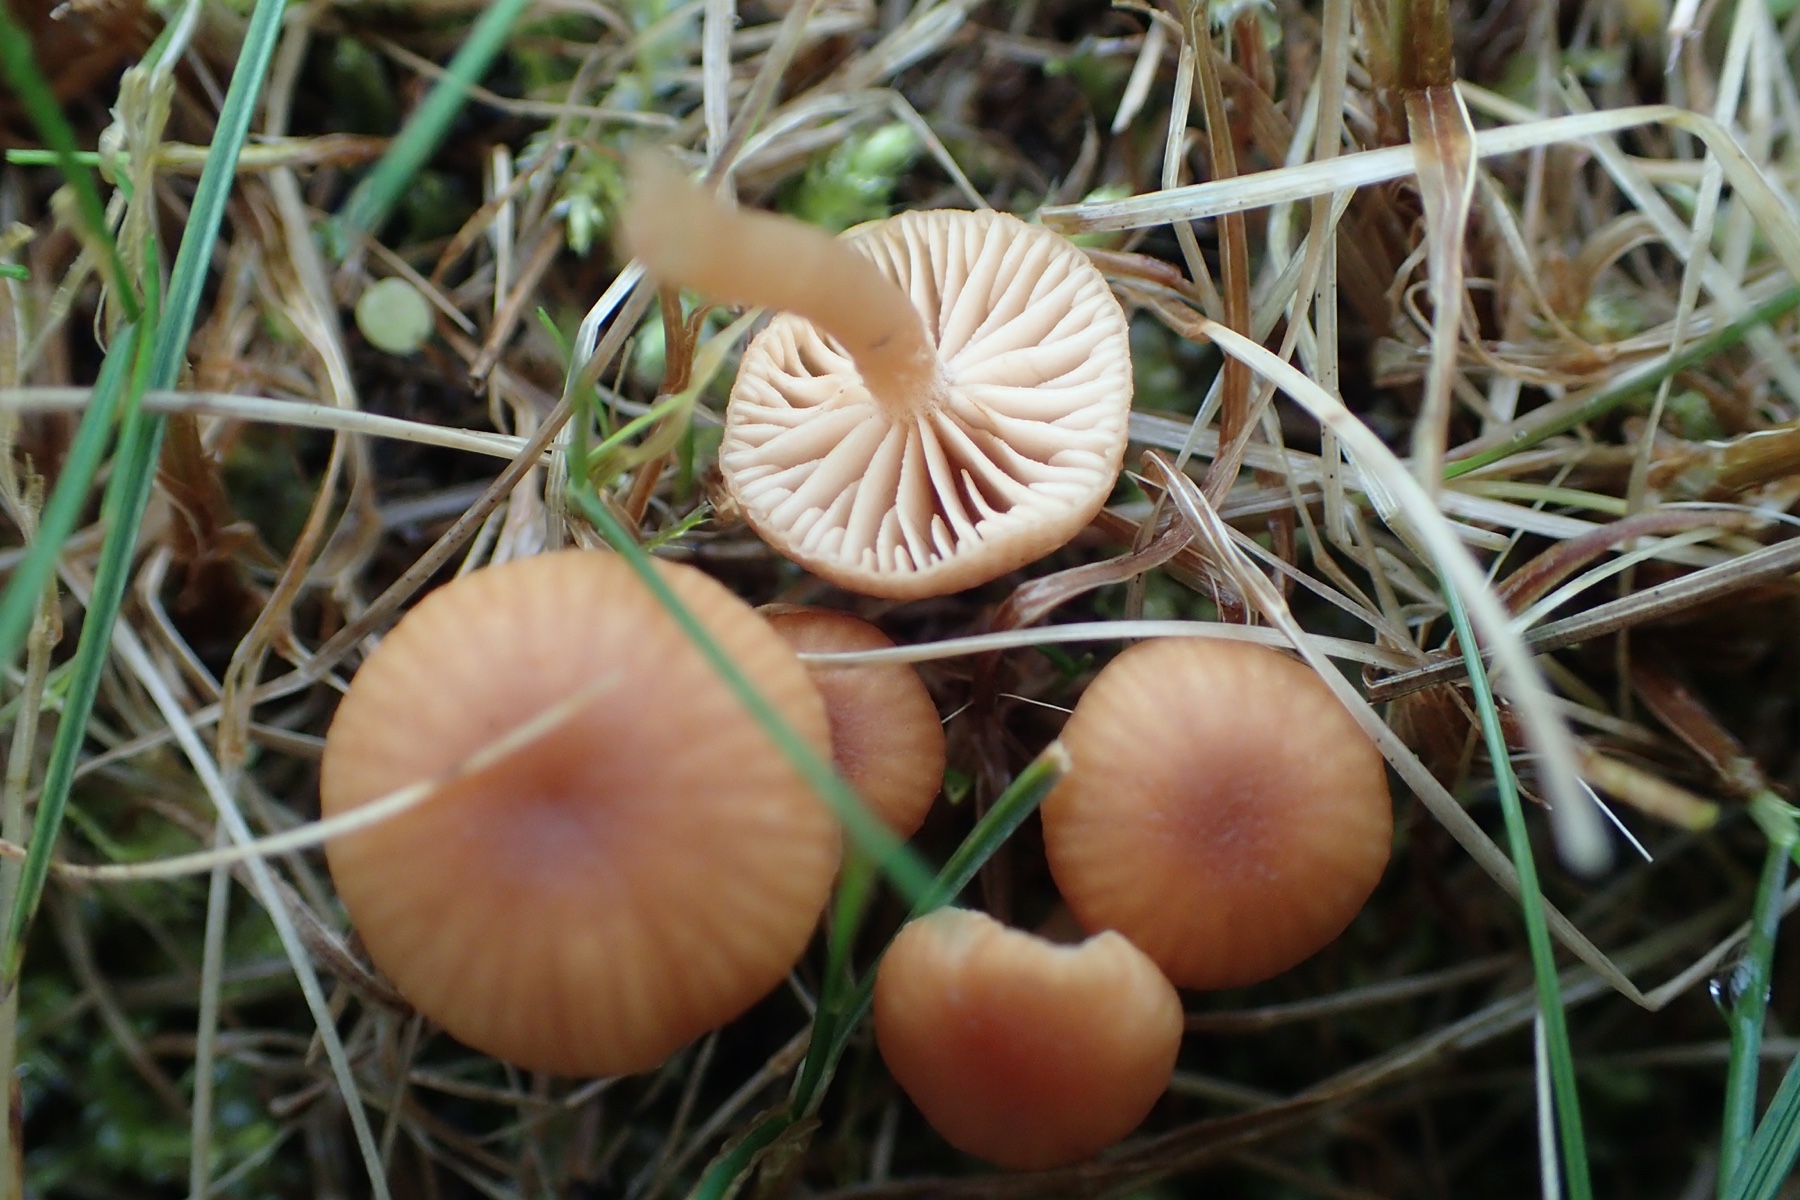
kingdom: Fungi
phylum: Basidiomycota
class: Agaricomycetes
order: Agaricales
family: Tubariaceae
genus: Tubaria
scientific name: Tubaria furfuracea
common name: kliddet fnughat
